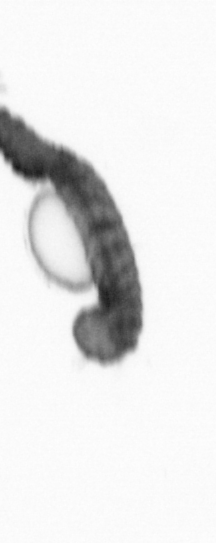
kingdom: Animalia
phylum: Annelida
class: Polychaeta
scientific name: Polychaeta
